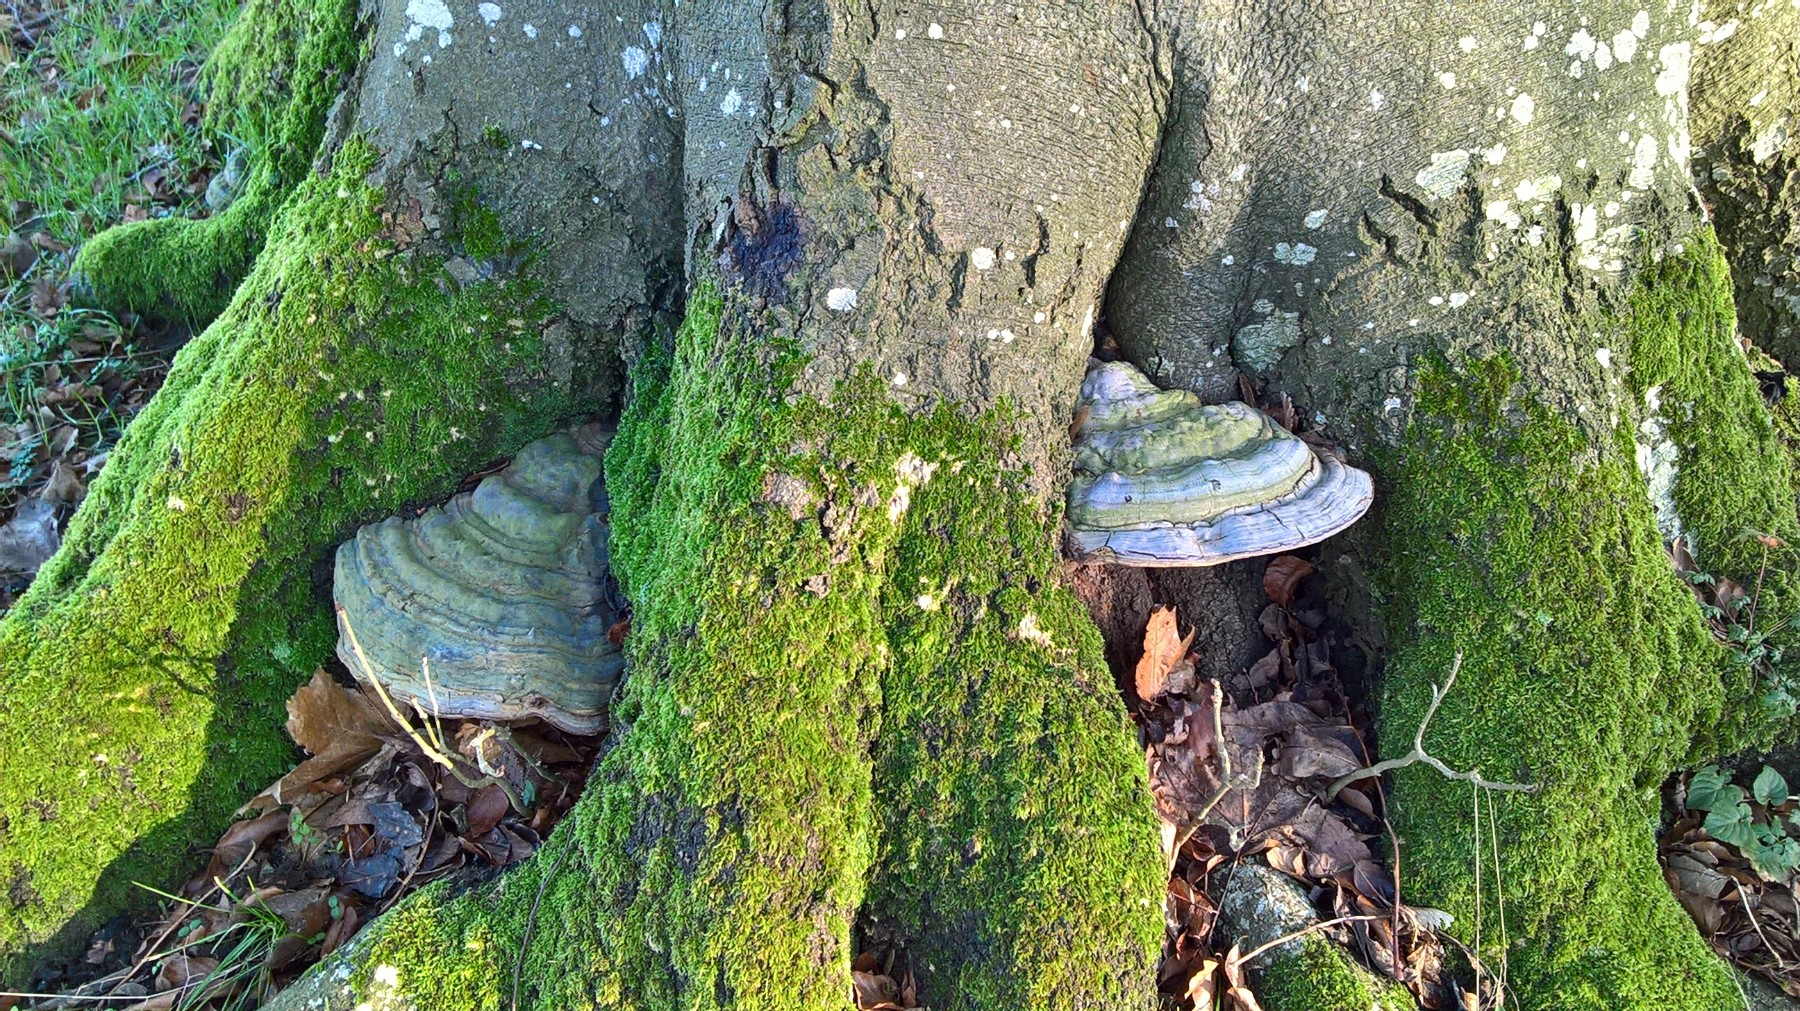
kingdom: Fungi
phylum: Basidiomycota
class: Agaricomycetes
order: Polyporales
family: Polyporaceae
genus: Ganoderma
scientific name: Ganoderma pfeifferi
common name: kobberrød lakporesvamp
